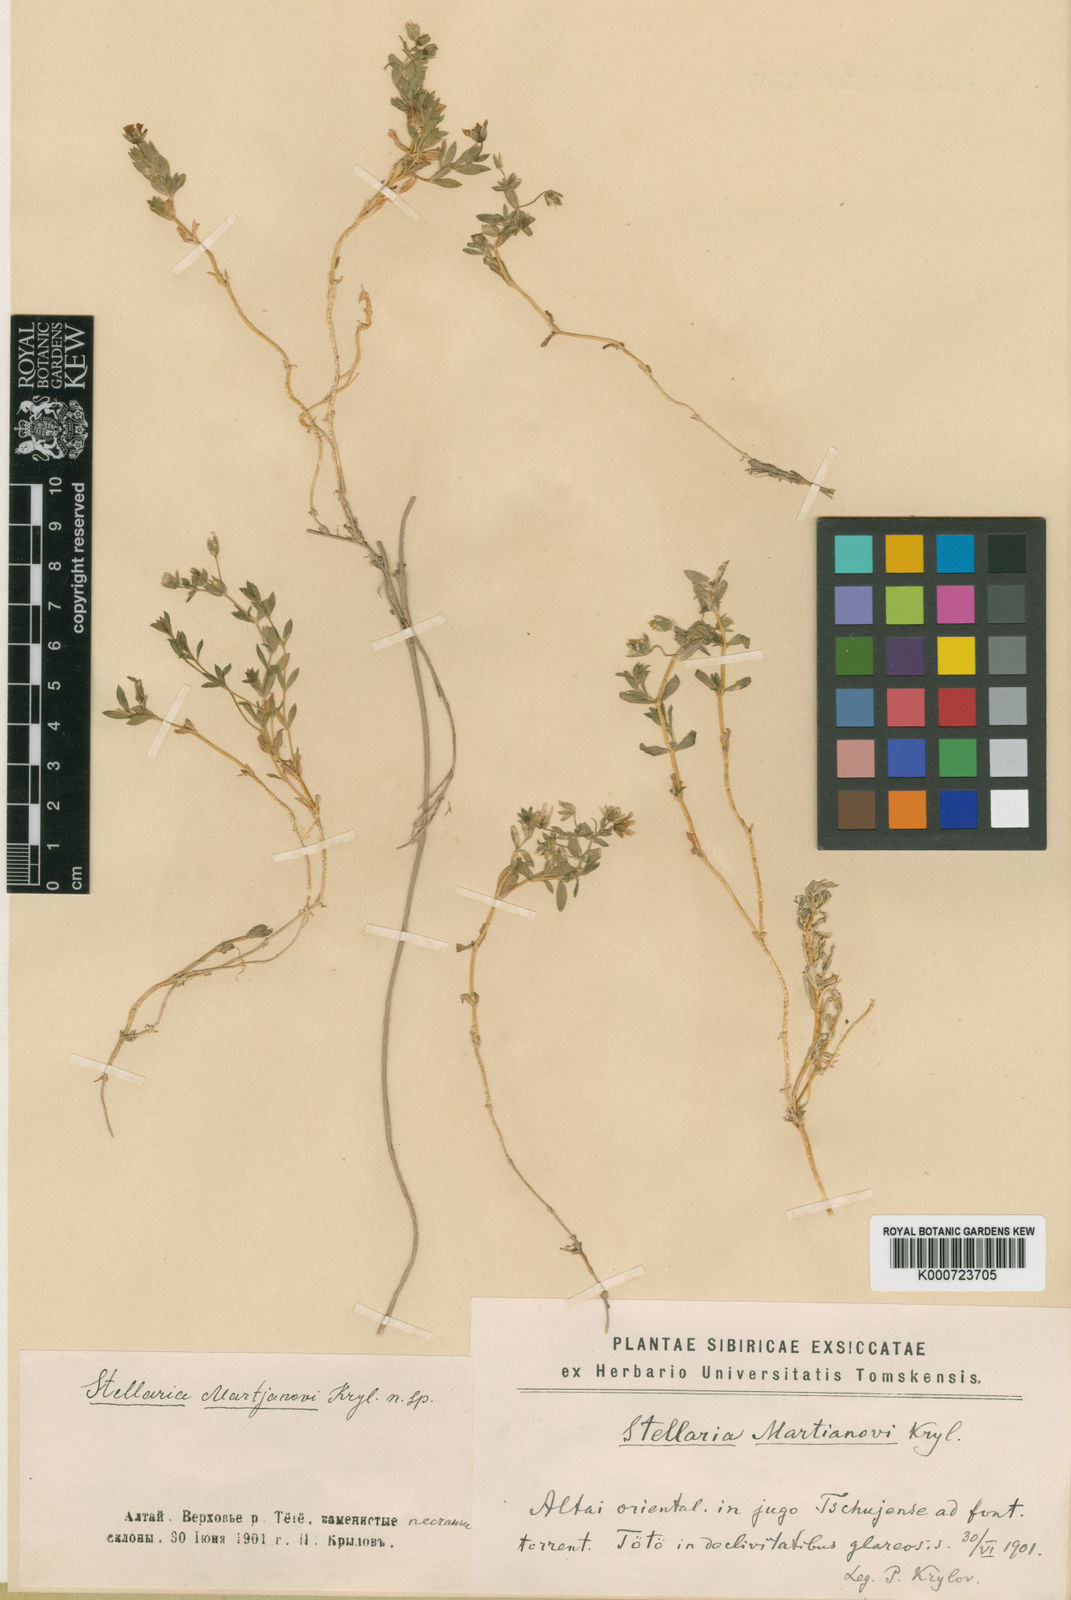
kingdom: Plantae
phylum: Tracheophyta
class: Magnoliopsida
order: Caryophyllales
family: Caryophyllaceae
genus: Mesostemma
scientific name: Mesostemma martjanovii
